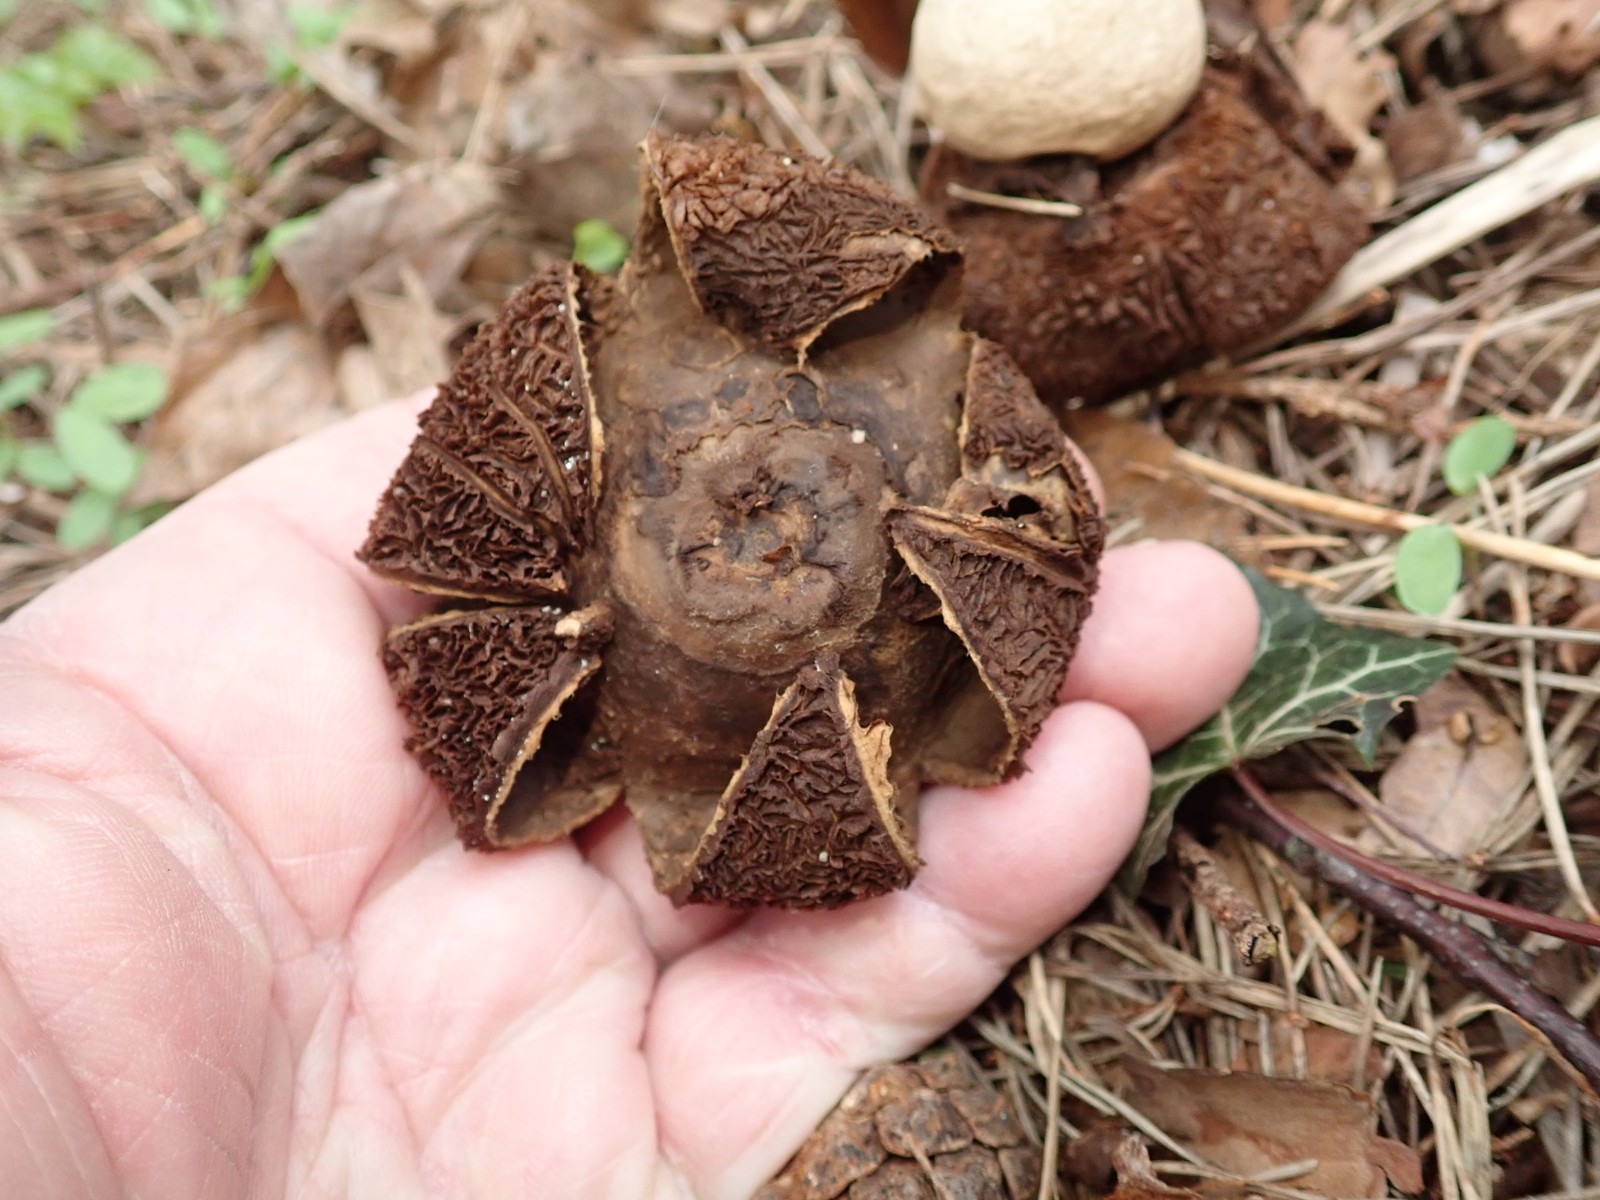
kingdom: Fungi
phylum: Basidiomycota
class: Agaricomycetes
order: Geastrales
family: Geastraceae
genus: Geastrum
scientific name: Geastrum michelianum
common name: kødet stjernebold
